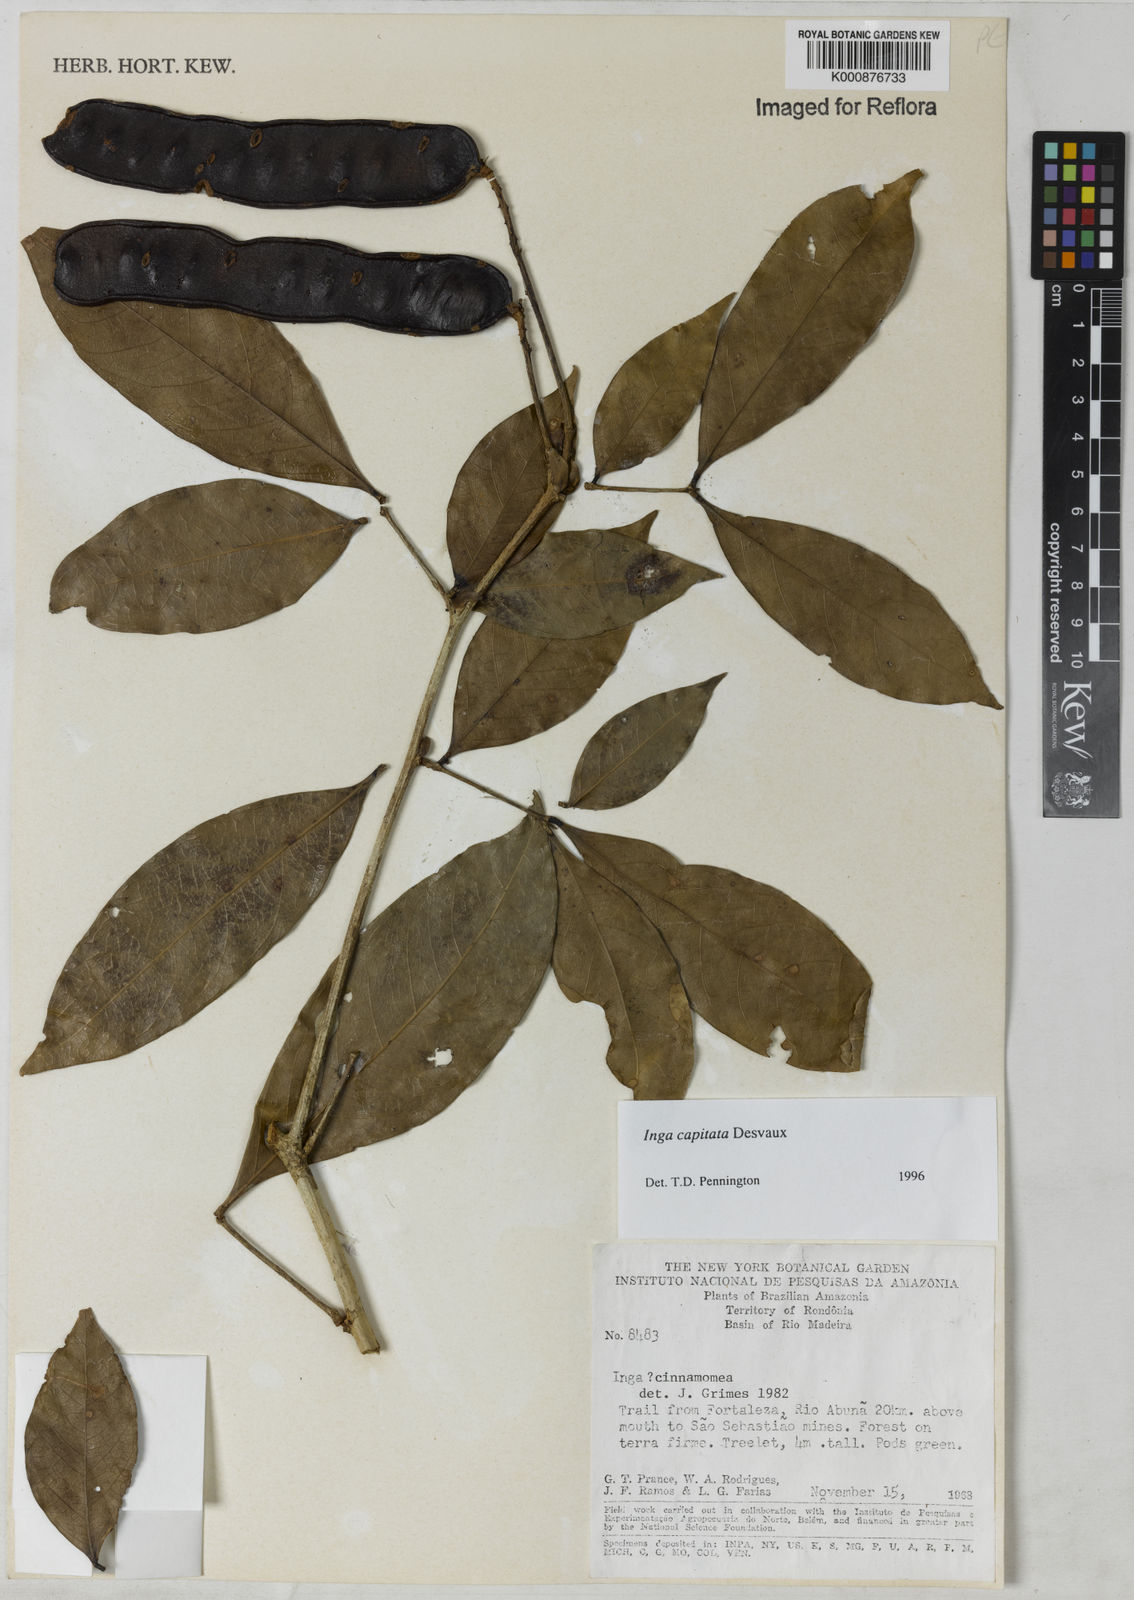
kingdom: Plantae
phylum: Tracheophyta
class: Magnoliopsida
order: Fabales
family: Fabaceae
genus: Inga
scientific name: Inga capitata
